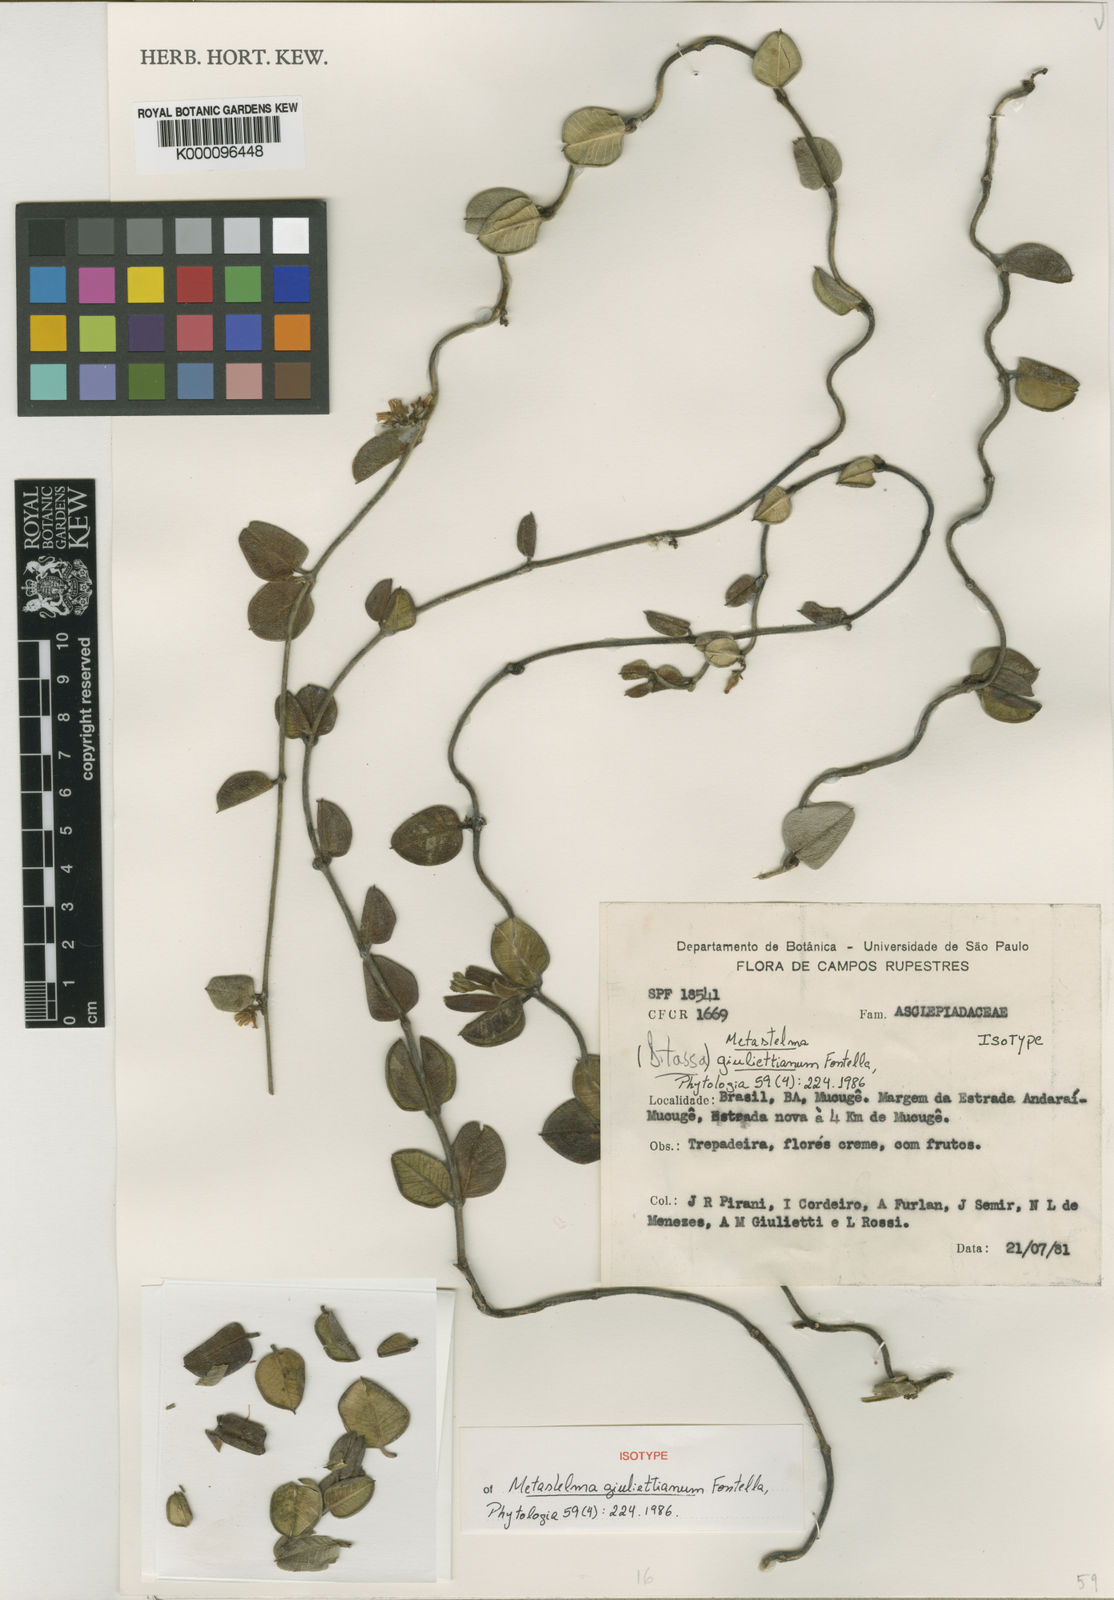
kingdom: Plantae
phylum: Tracheophyta
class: Magnoliopsida
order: Gentianales
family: Apocynaceae
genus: Metastelma
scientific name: Metastelma giuliettianum
